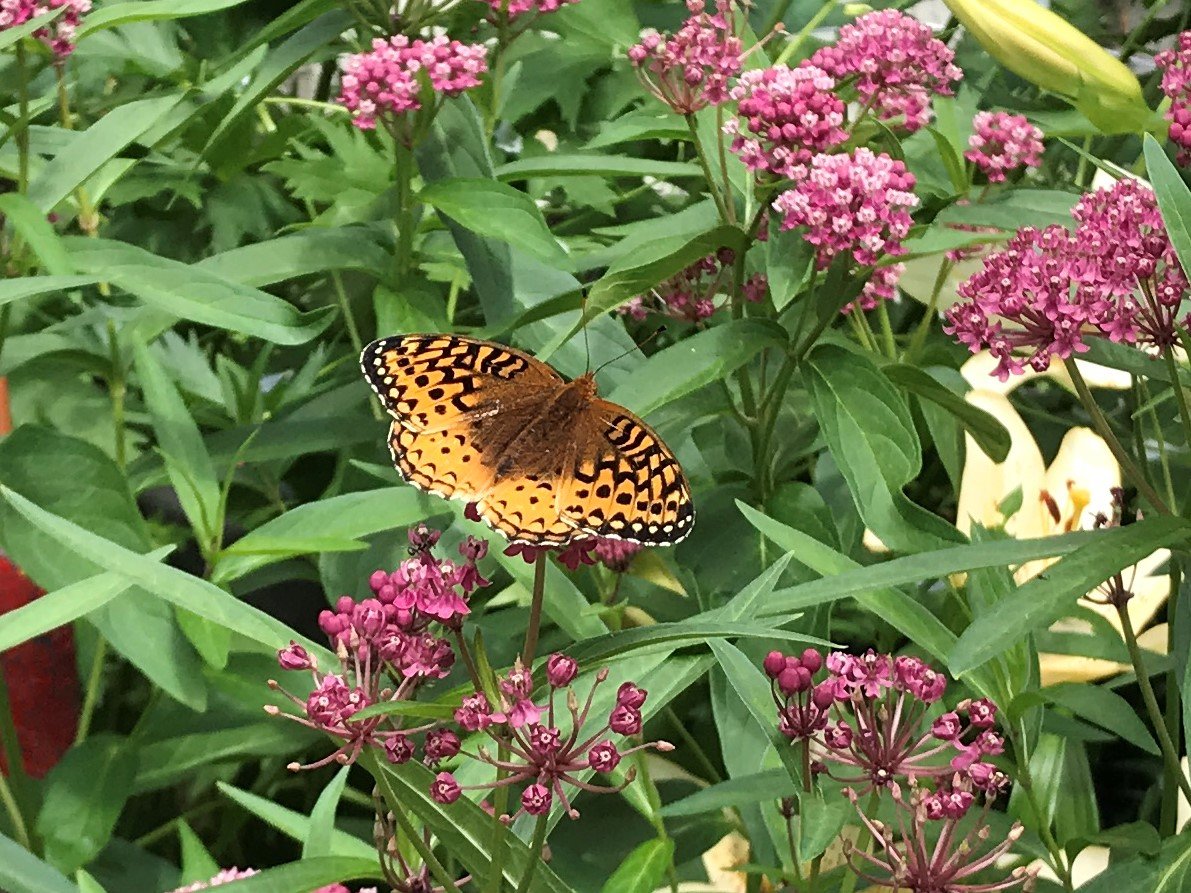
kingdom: Animalia
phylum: Arthropoda
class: Insecta
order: Lepidoptera
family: Nymphalidae
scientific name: Nymphalidae
